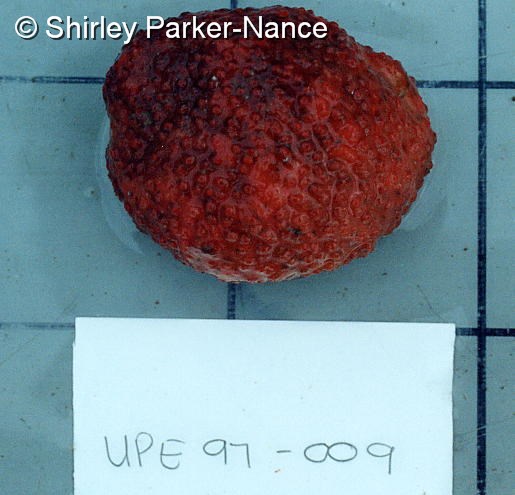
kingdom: Animalia
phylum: Chordata
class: Ascidiacea
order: Stolidobranchia
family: Styelidae
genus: Gynandrocarpa
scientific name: Gynandrocarpa placenta
